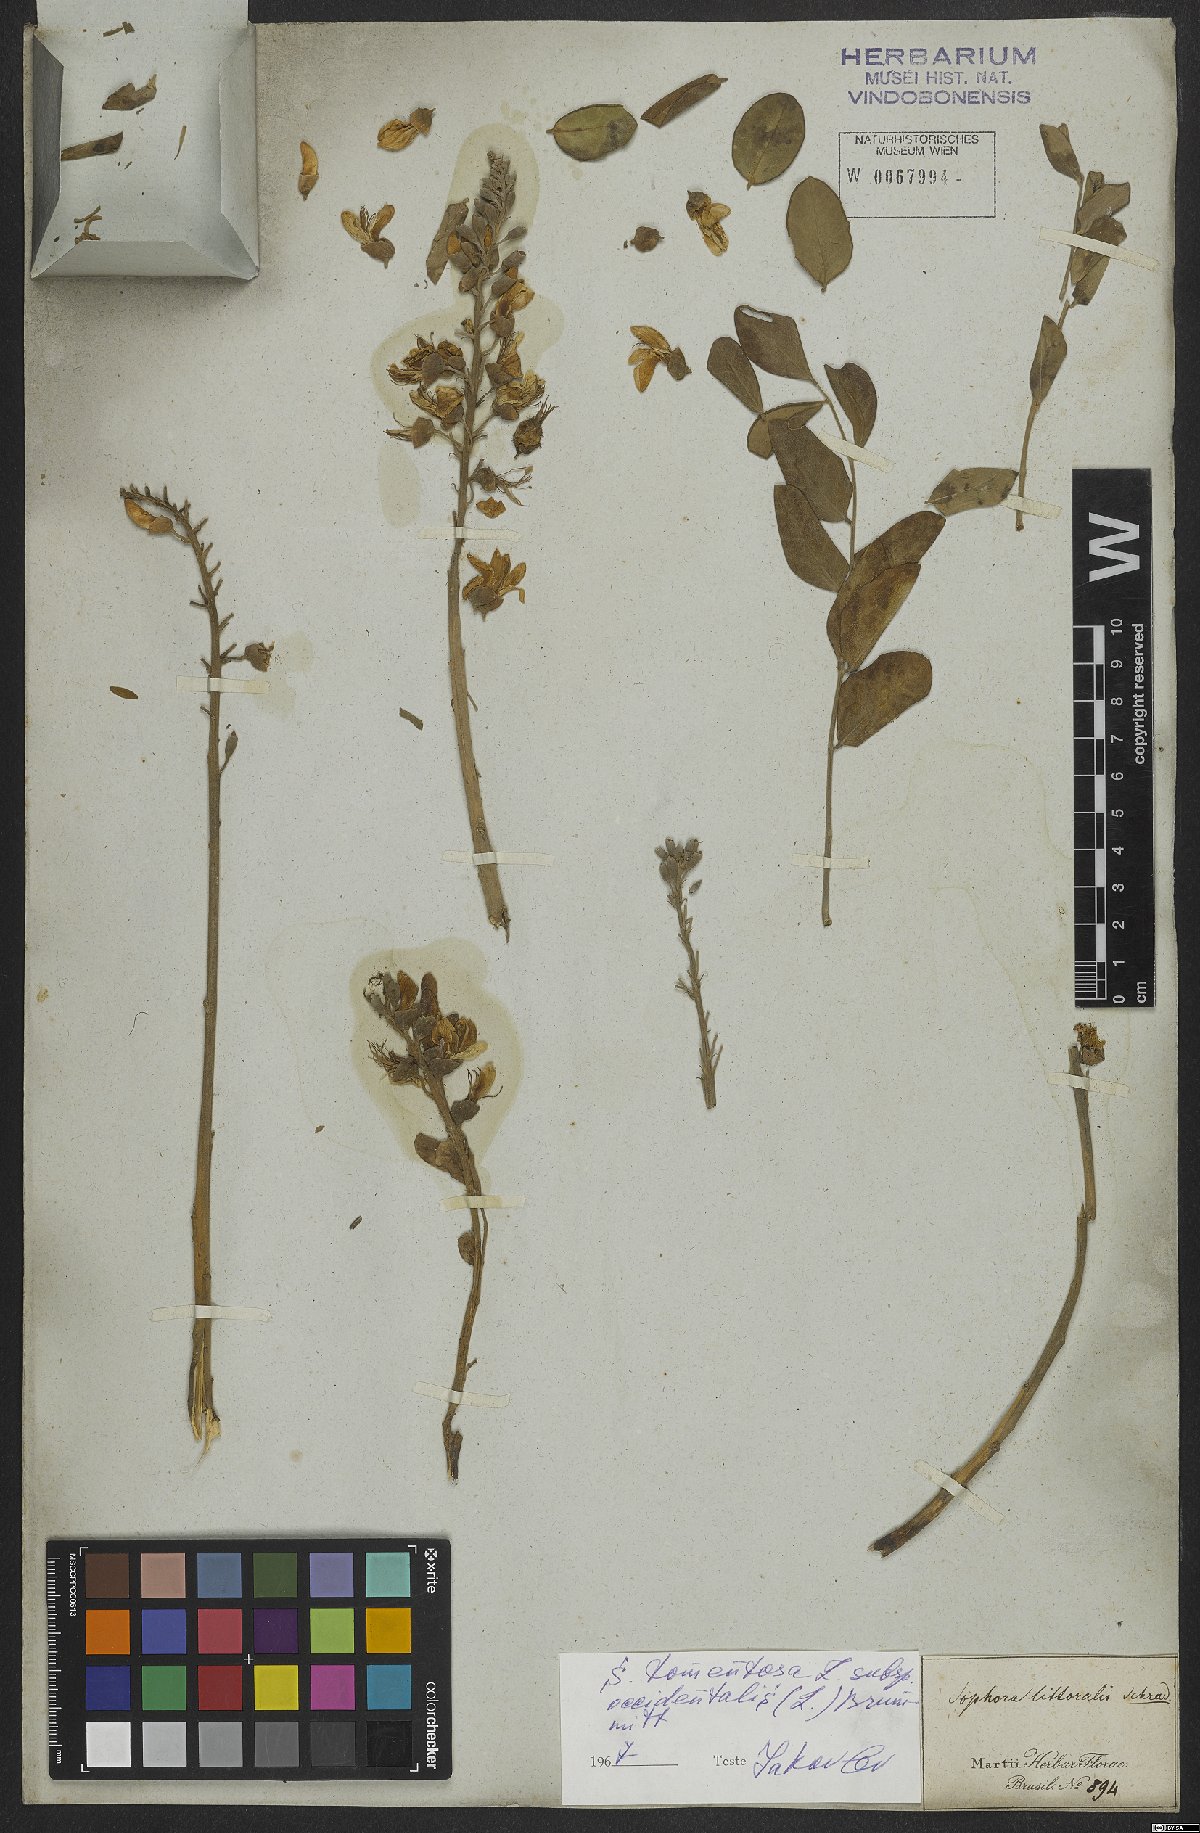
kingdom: Plantae
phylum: Tracheophyta
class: Magnoliopsida
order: Fabales
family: Fabaceae
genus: Sophora
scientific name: Sophora tomentosa
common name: Yellow necklacepod
